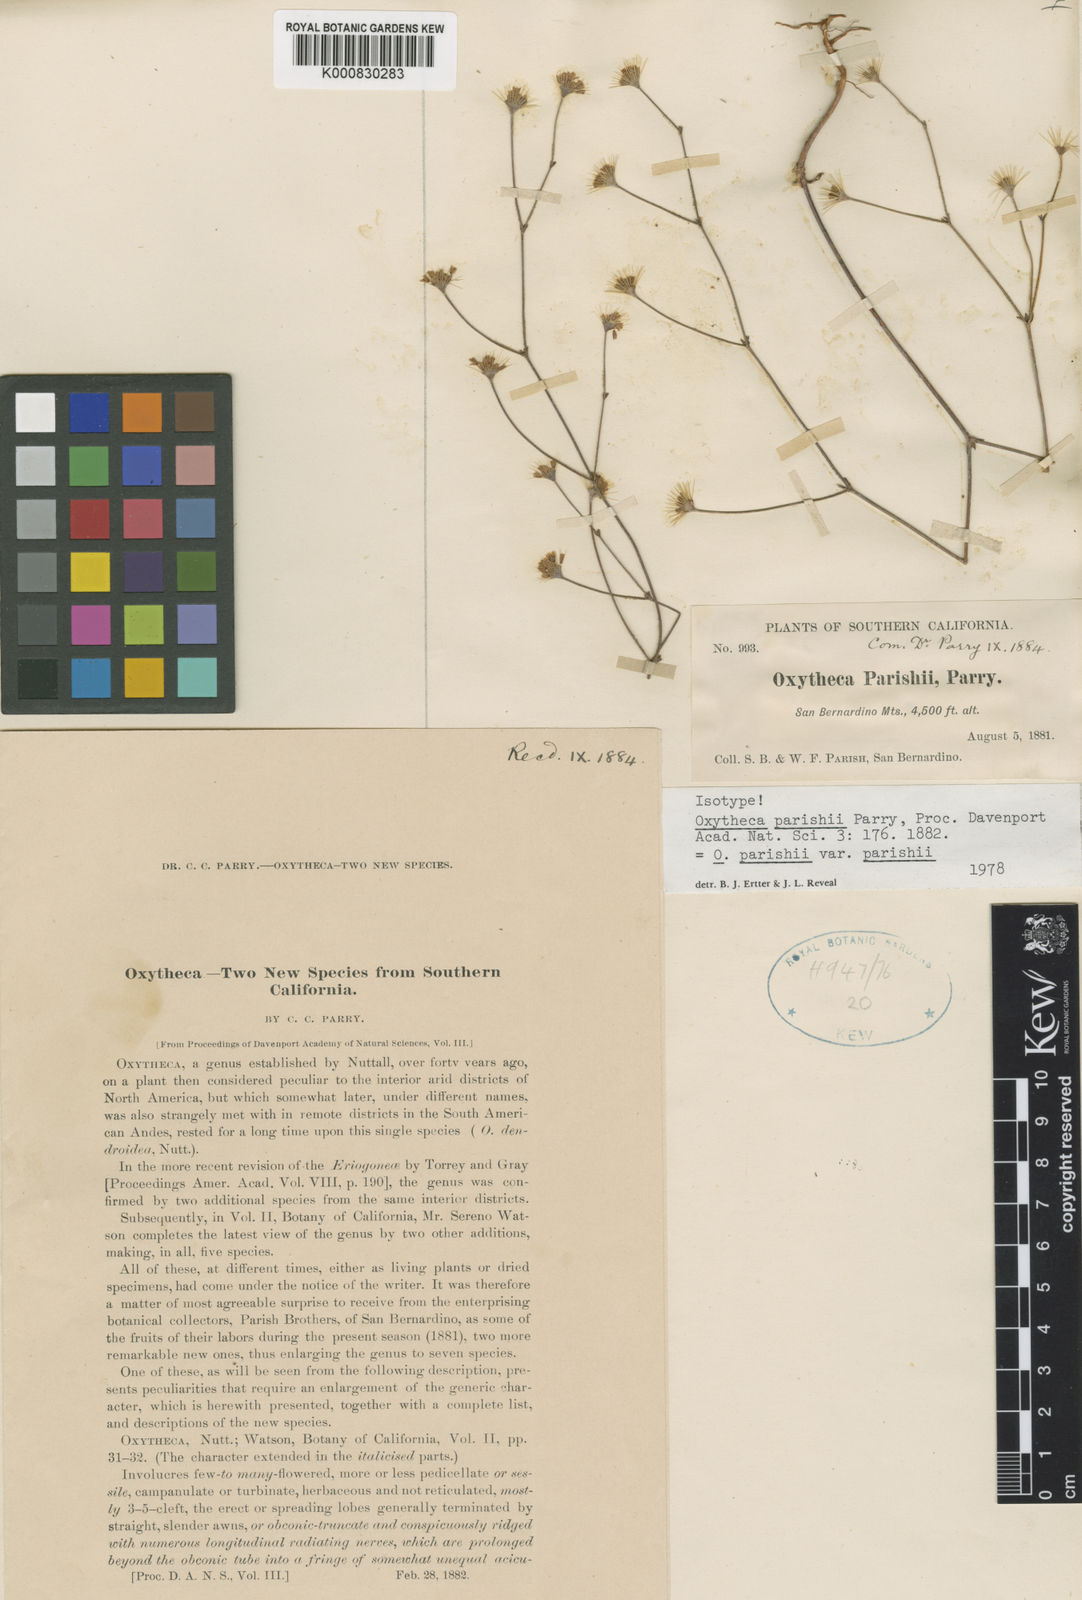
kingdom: Plantae
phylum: Tracheophyta
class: Magnoliopsida
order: Caryophyllales
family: Polygonaceae
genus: Acanthoscyphus
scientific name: Acanthoscyphus parishii
